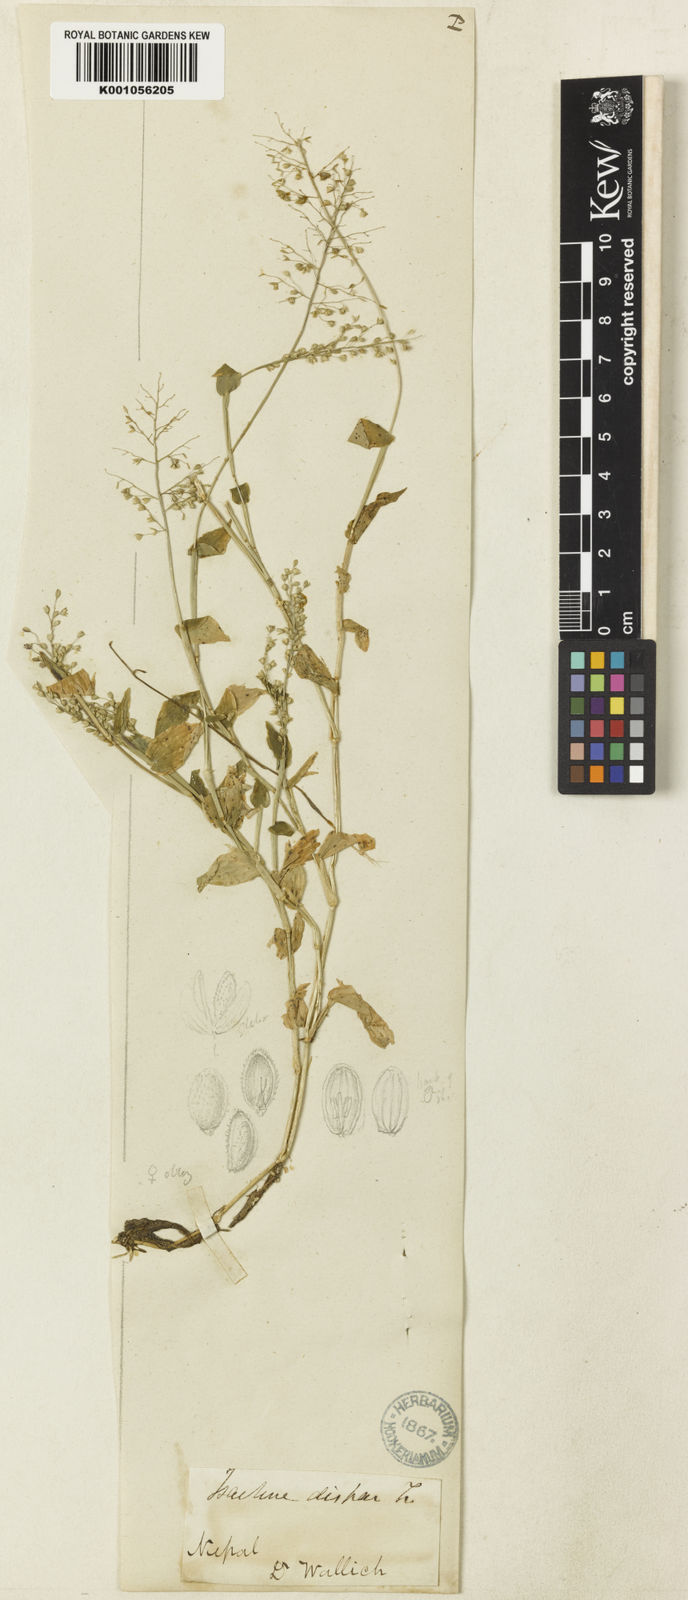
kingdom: Plantae
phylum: Tracheophyta
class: Liliopsida
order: Poales
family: Poaceae
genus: Isachne
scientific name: Isachne pulchella
